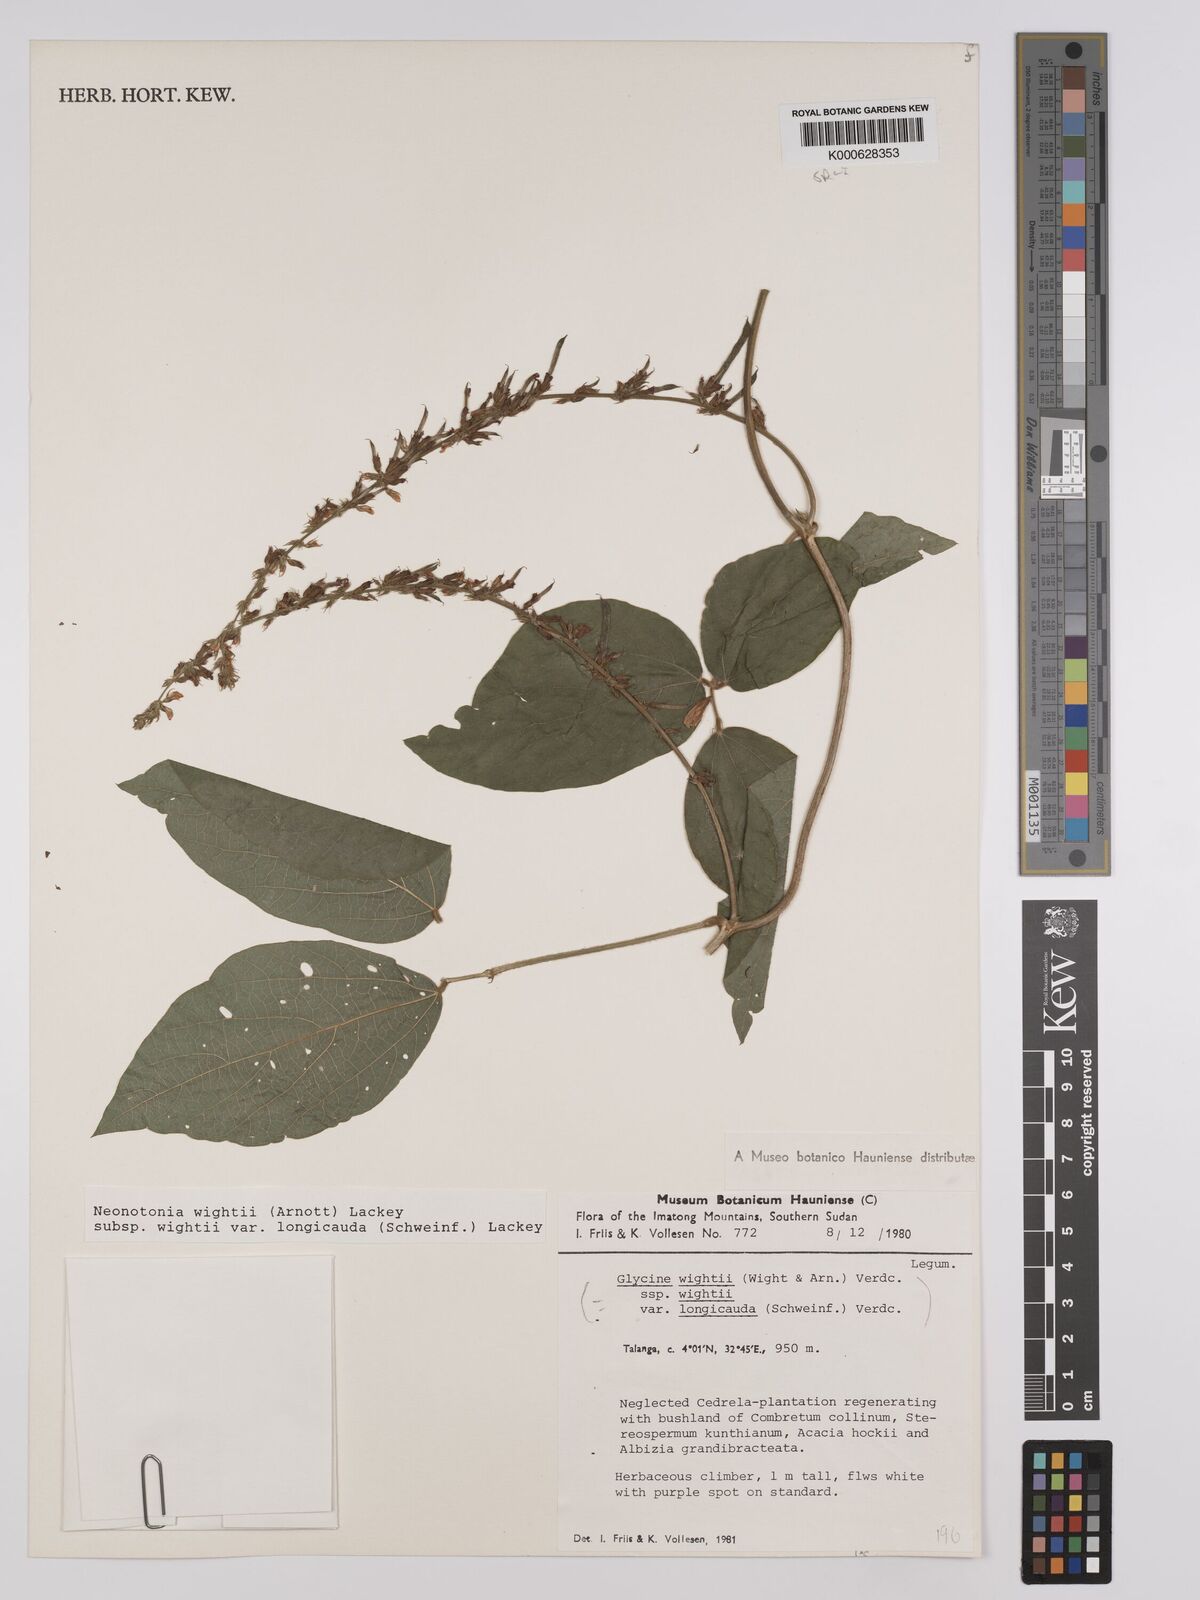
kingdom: Plantae
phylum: Tracheophyta
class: Magnoliopsida
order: Fabales
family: Fabaceae
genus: Neonotonia
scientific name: Neonotonia wightii
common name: Perennial soybean
